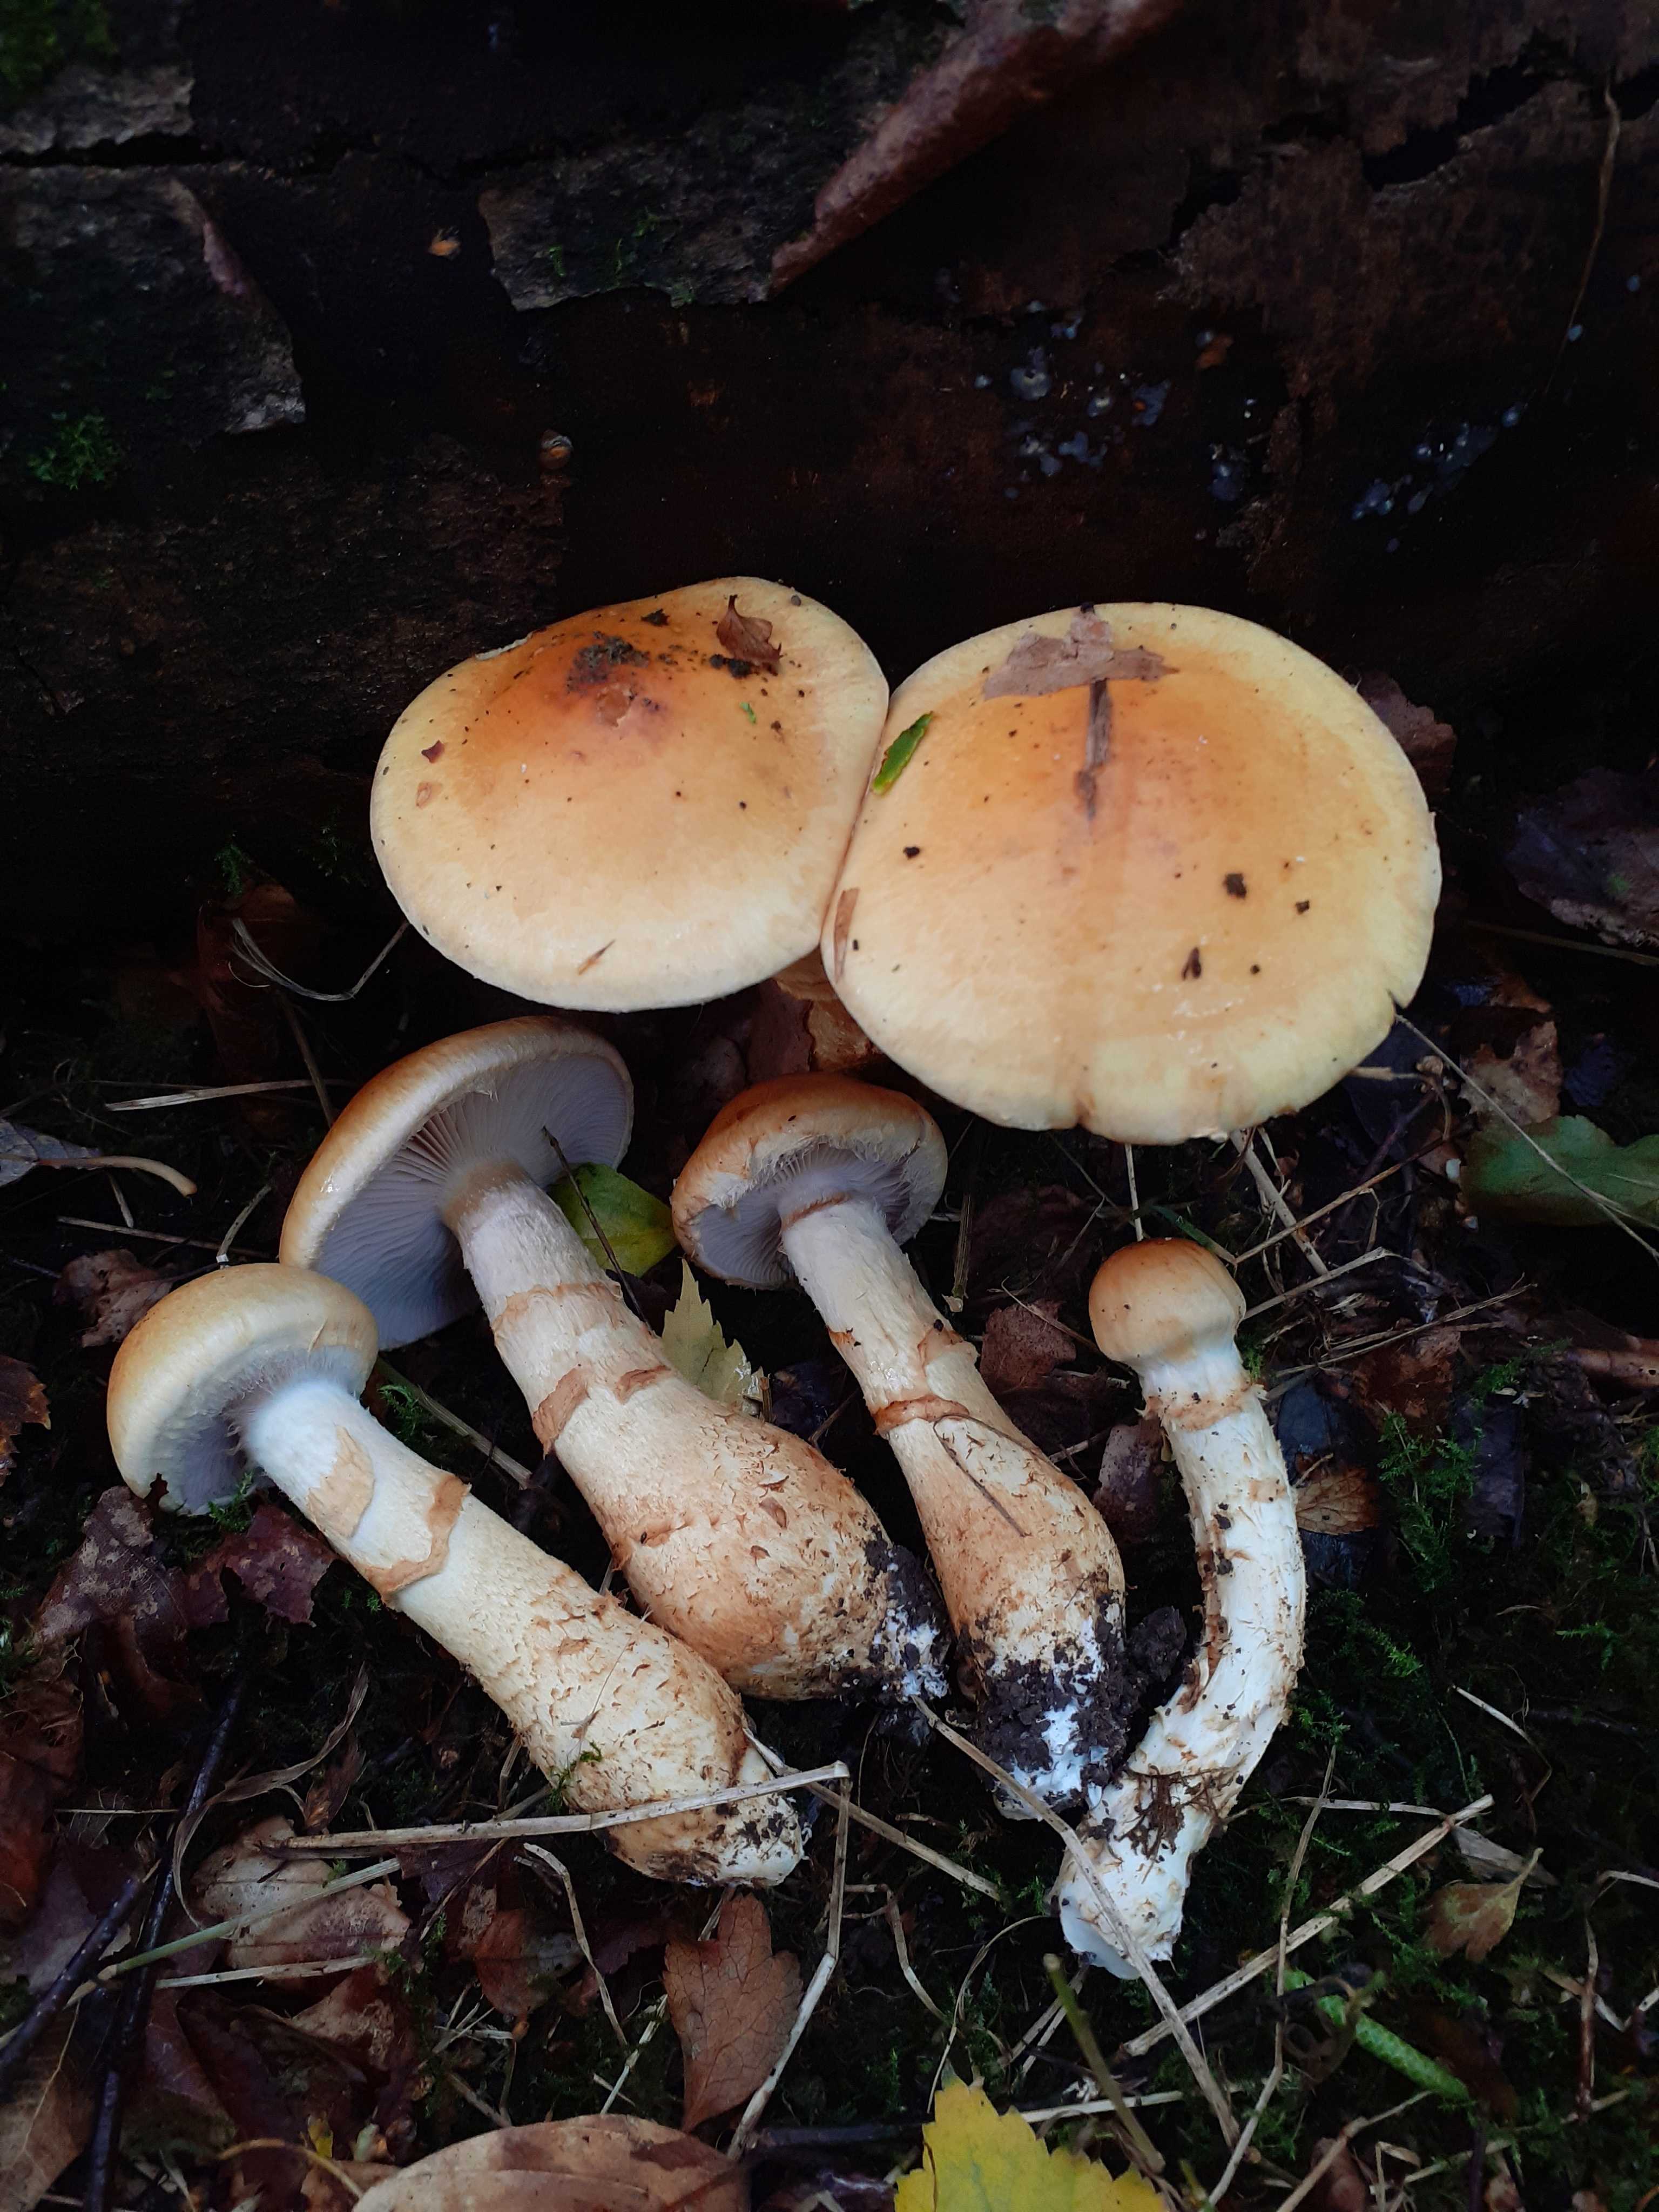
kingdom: Fungi
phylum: Basidiomycota
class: Agaricomycetes
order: Agaricales
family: Cortinariaceae
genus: Phlegmacium
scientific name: Phlegmacium triumphans
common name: gulbæltet slørhat
